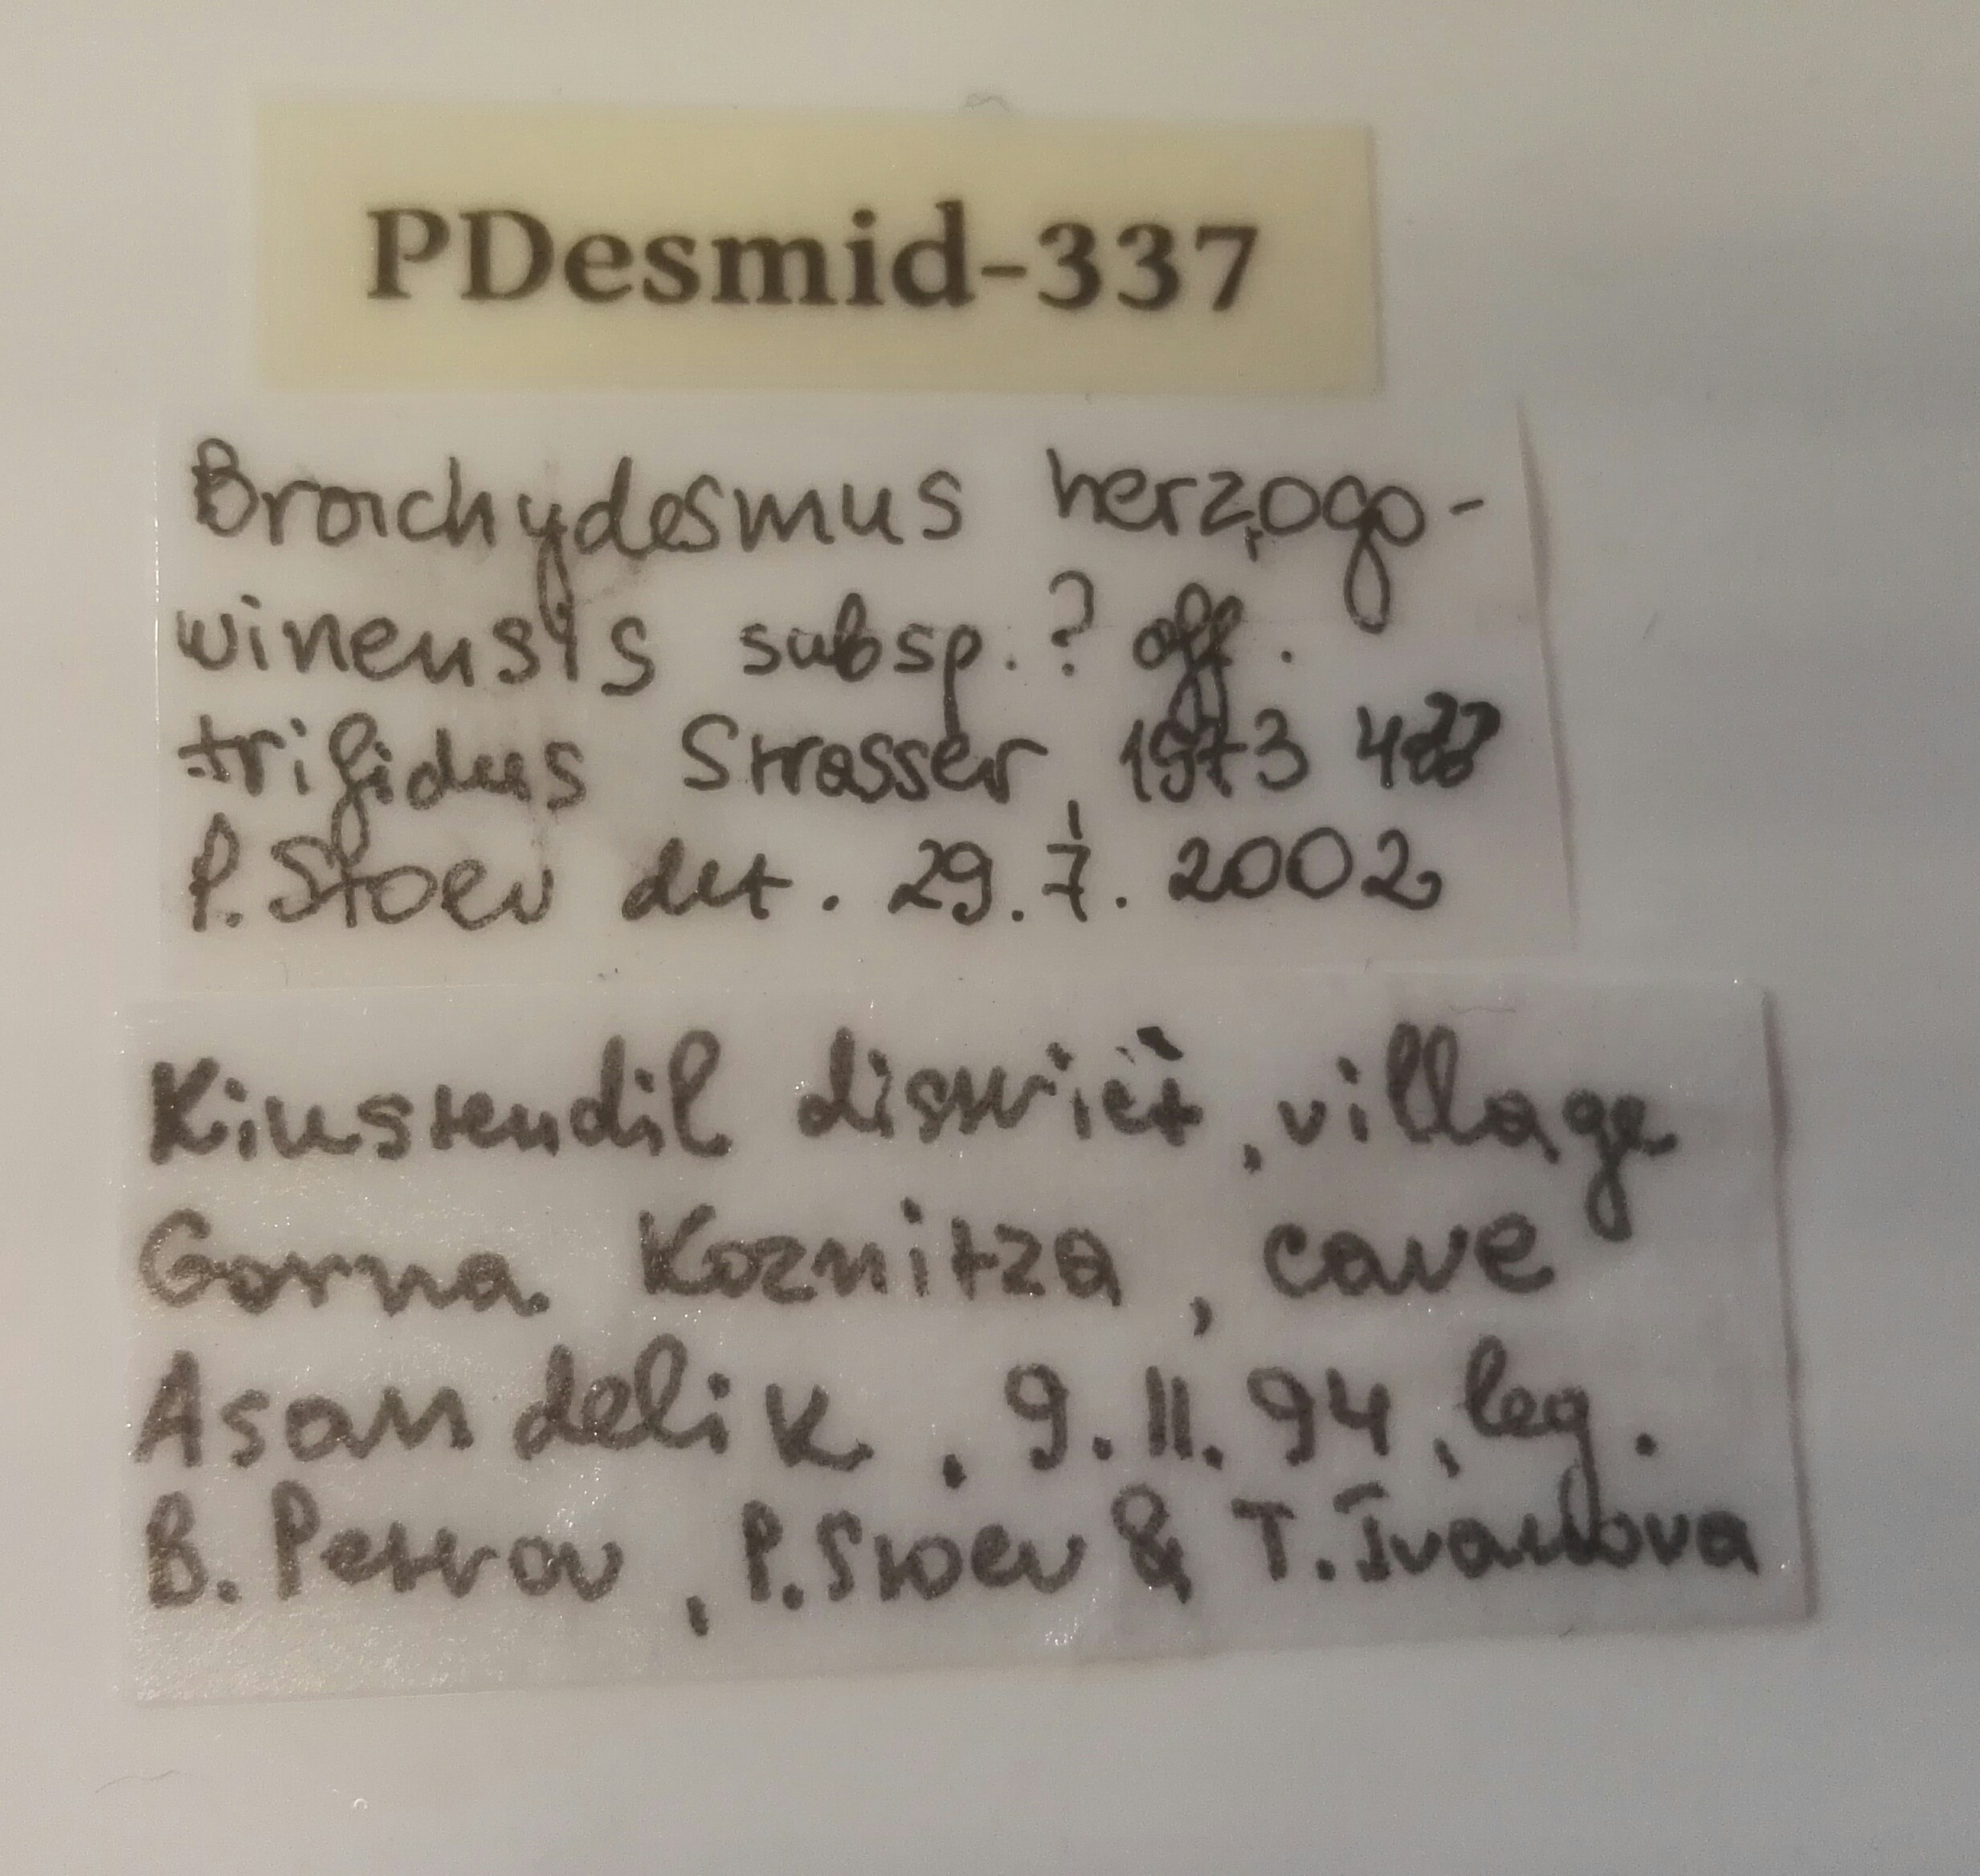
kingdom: Animalia
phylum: Arthropoda
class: Diplopoda
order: Polydesmida
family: Polydesmidae
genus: Brachydesmus
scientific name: Brachydesmus herzegowinensis
